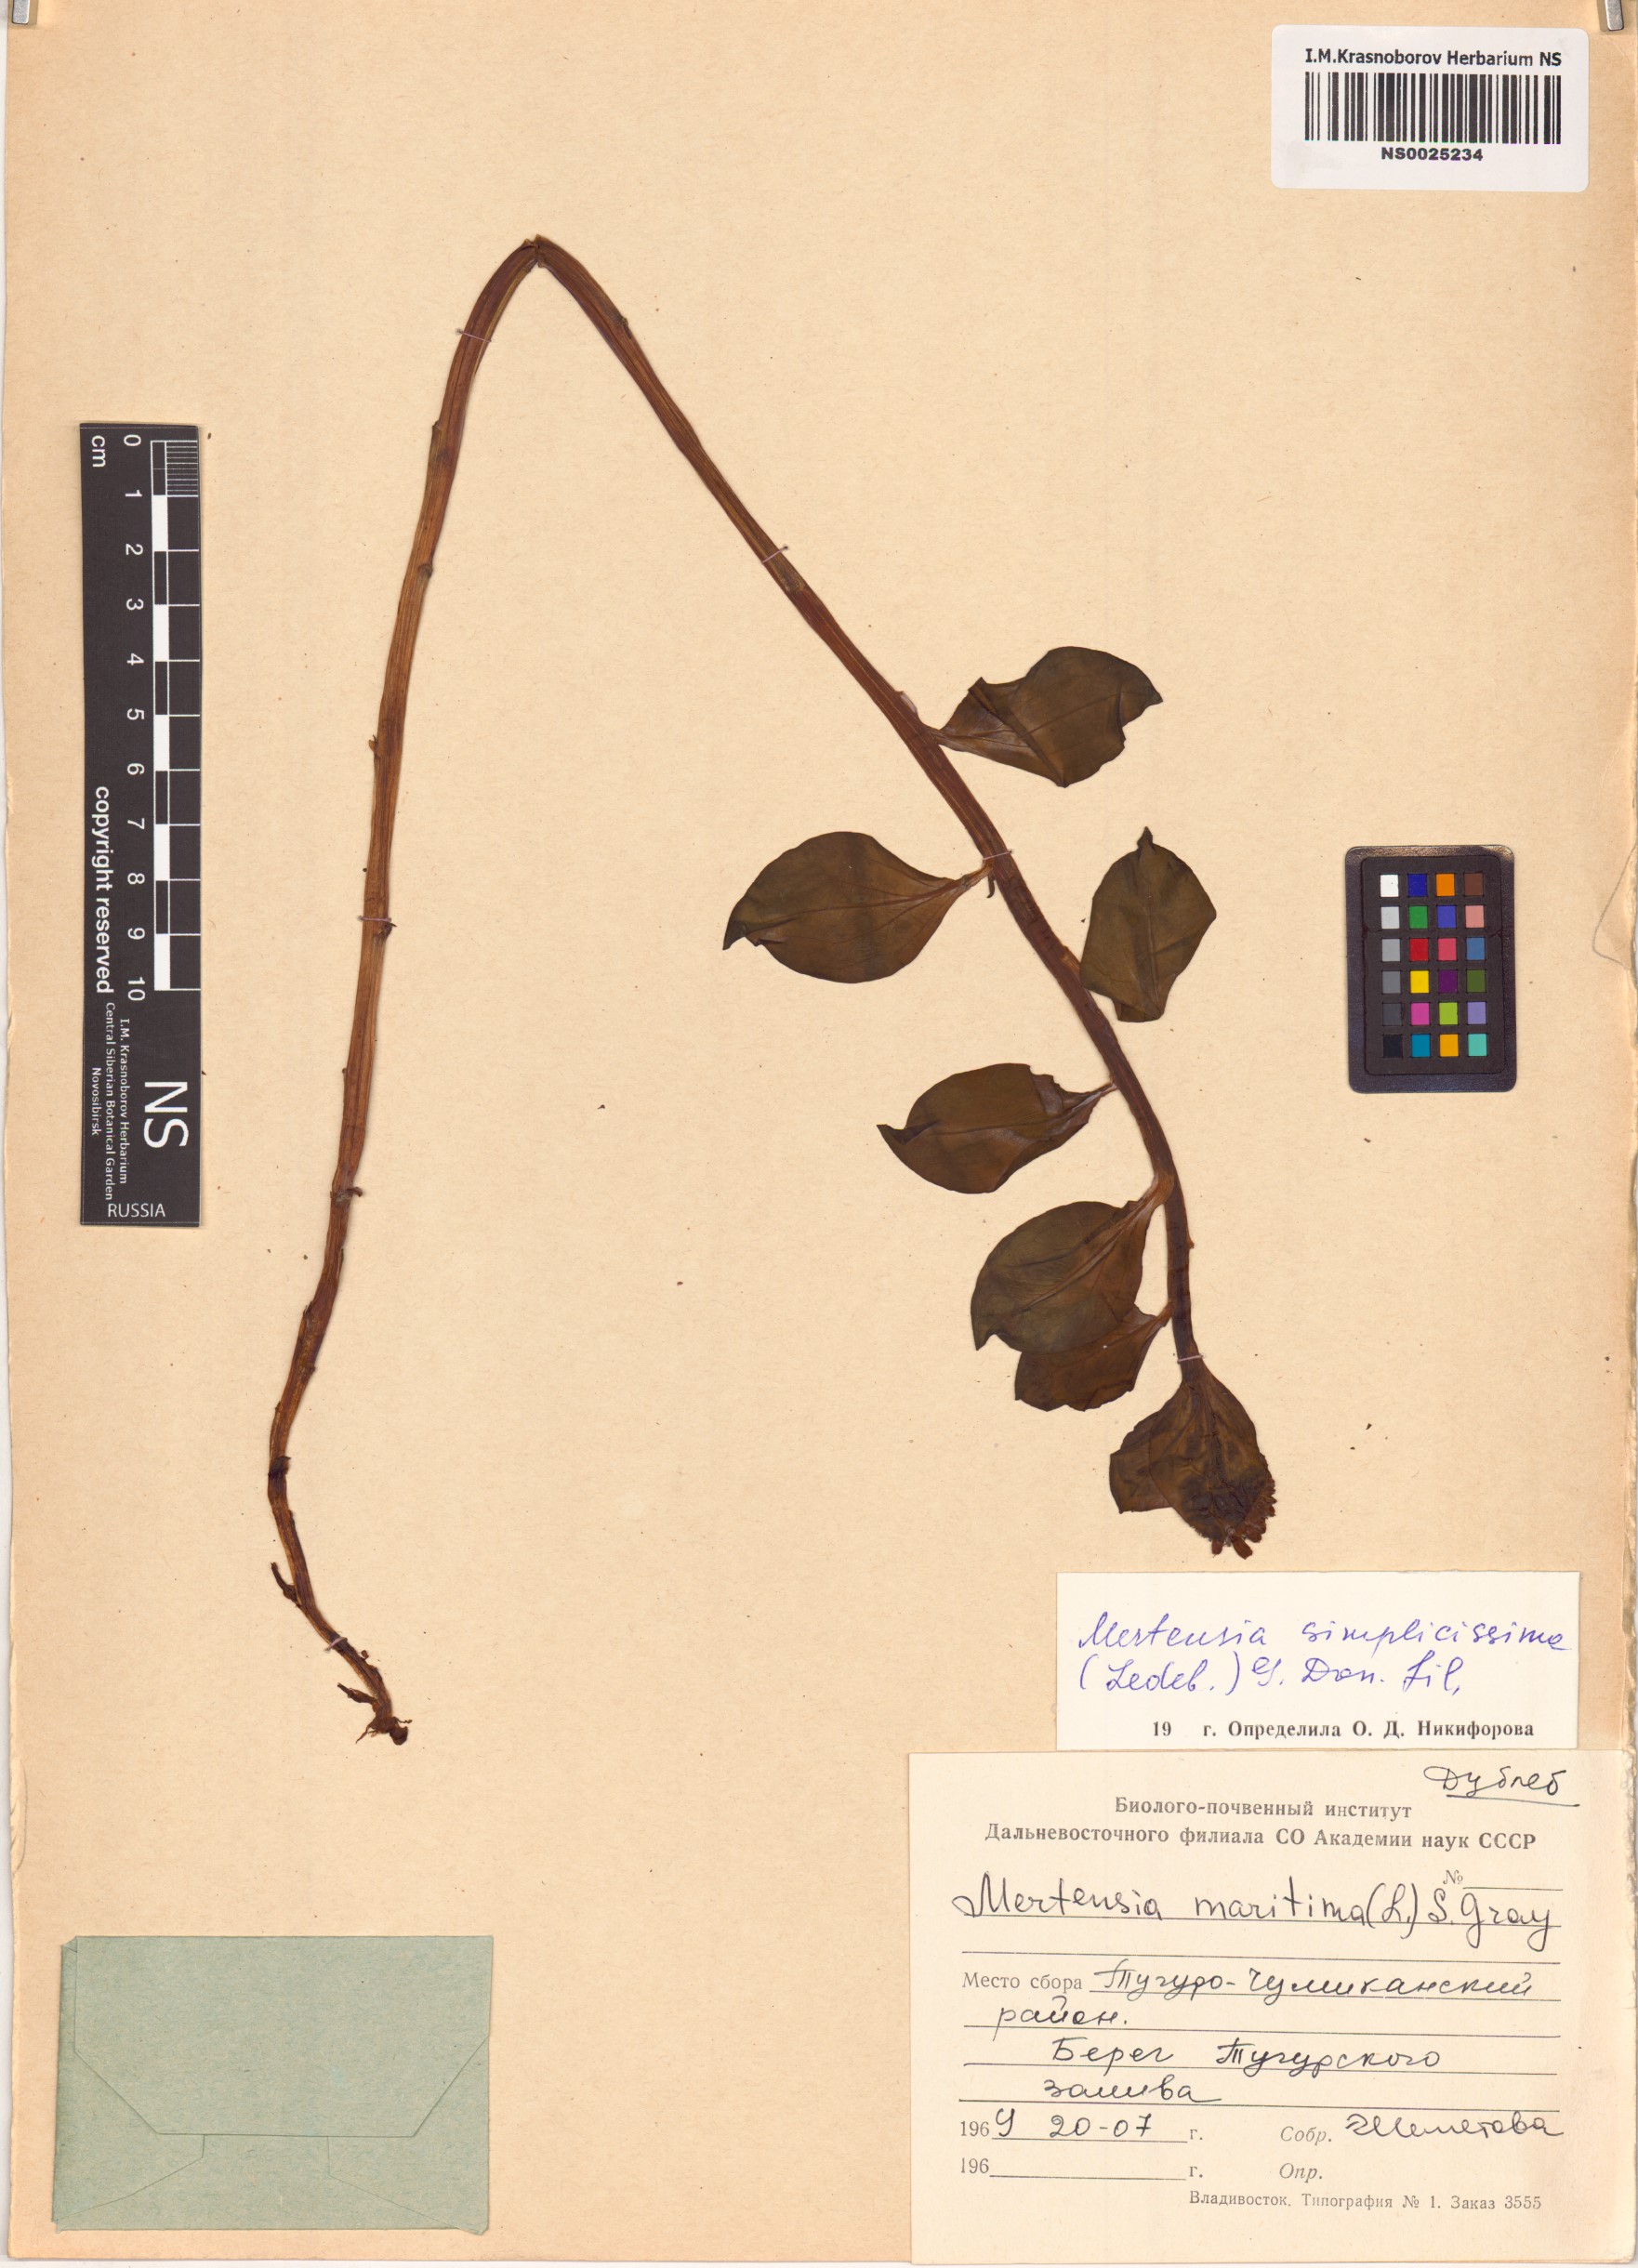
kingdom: Plantae
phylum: Tracheophyta
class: Magnoliopsida
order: Boraginales
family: Boraginaceae
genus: Mertensia
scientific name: Mertensia simplicissima
